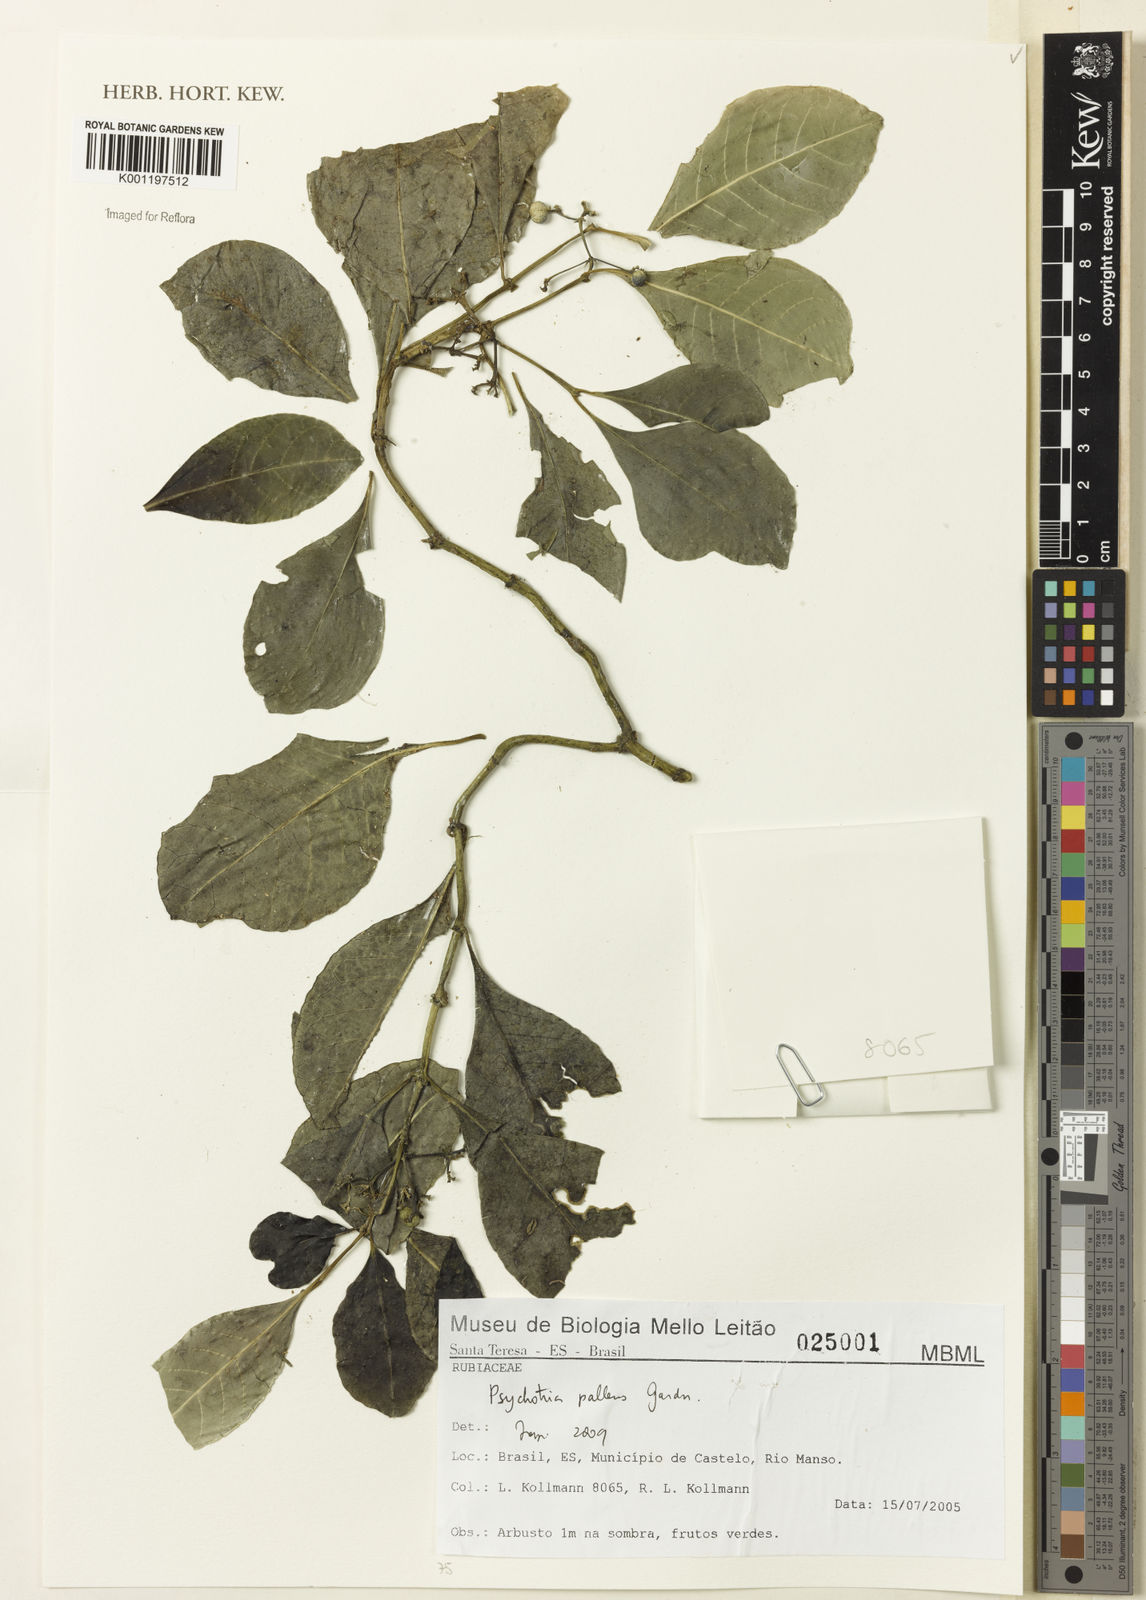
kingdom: Plantae
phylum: Tracheophyta
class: Magnoliopsida
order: Gentianales
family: Rubiaceae
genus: Psychotria
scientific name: Psychotria pallens
